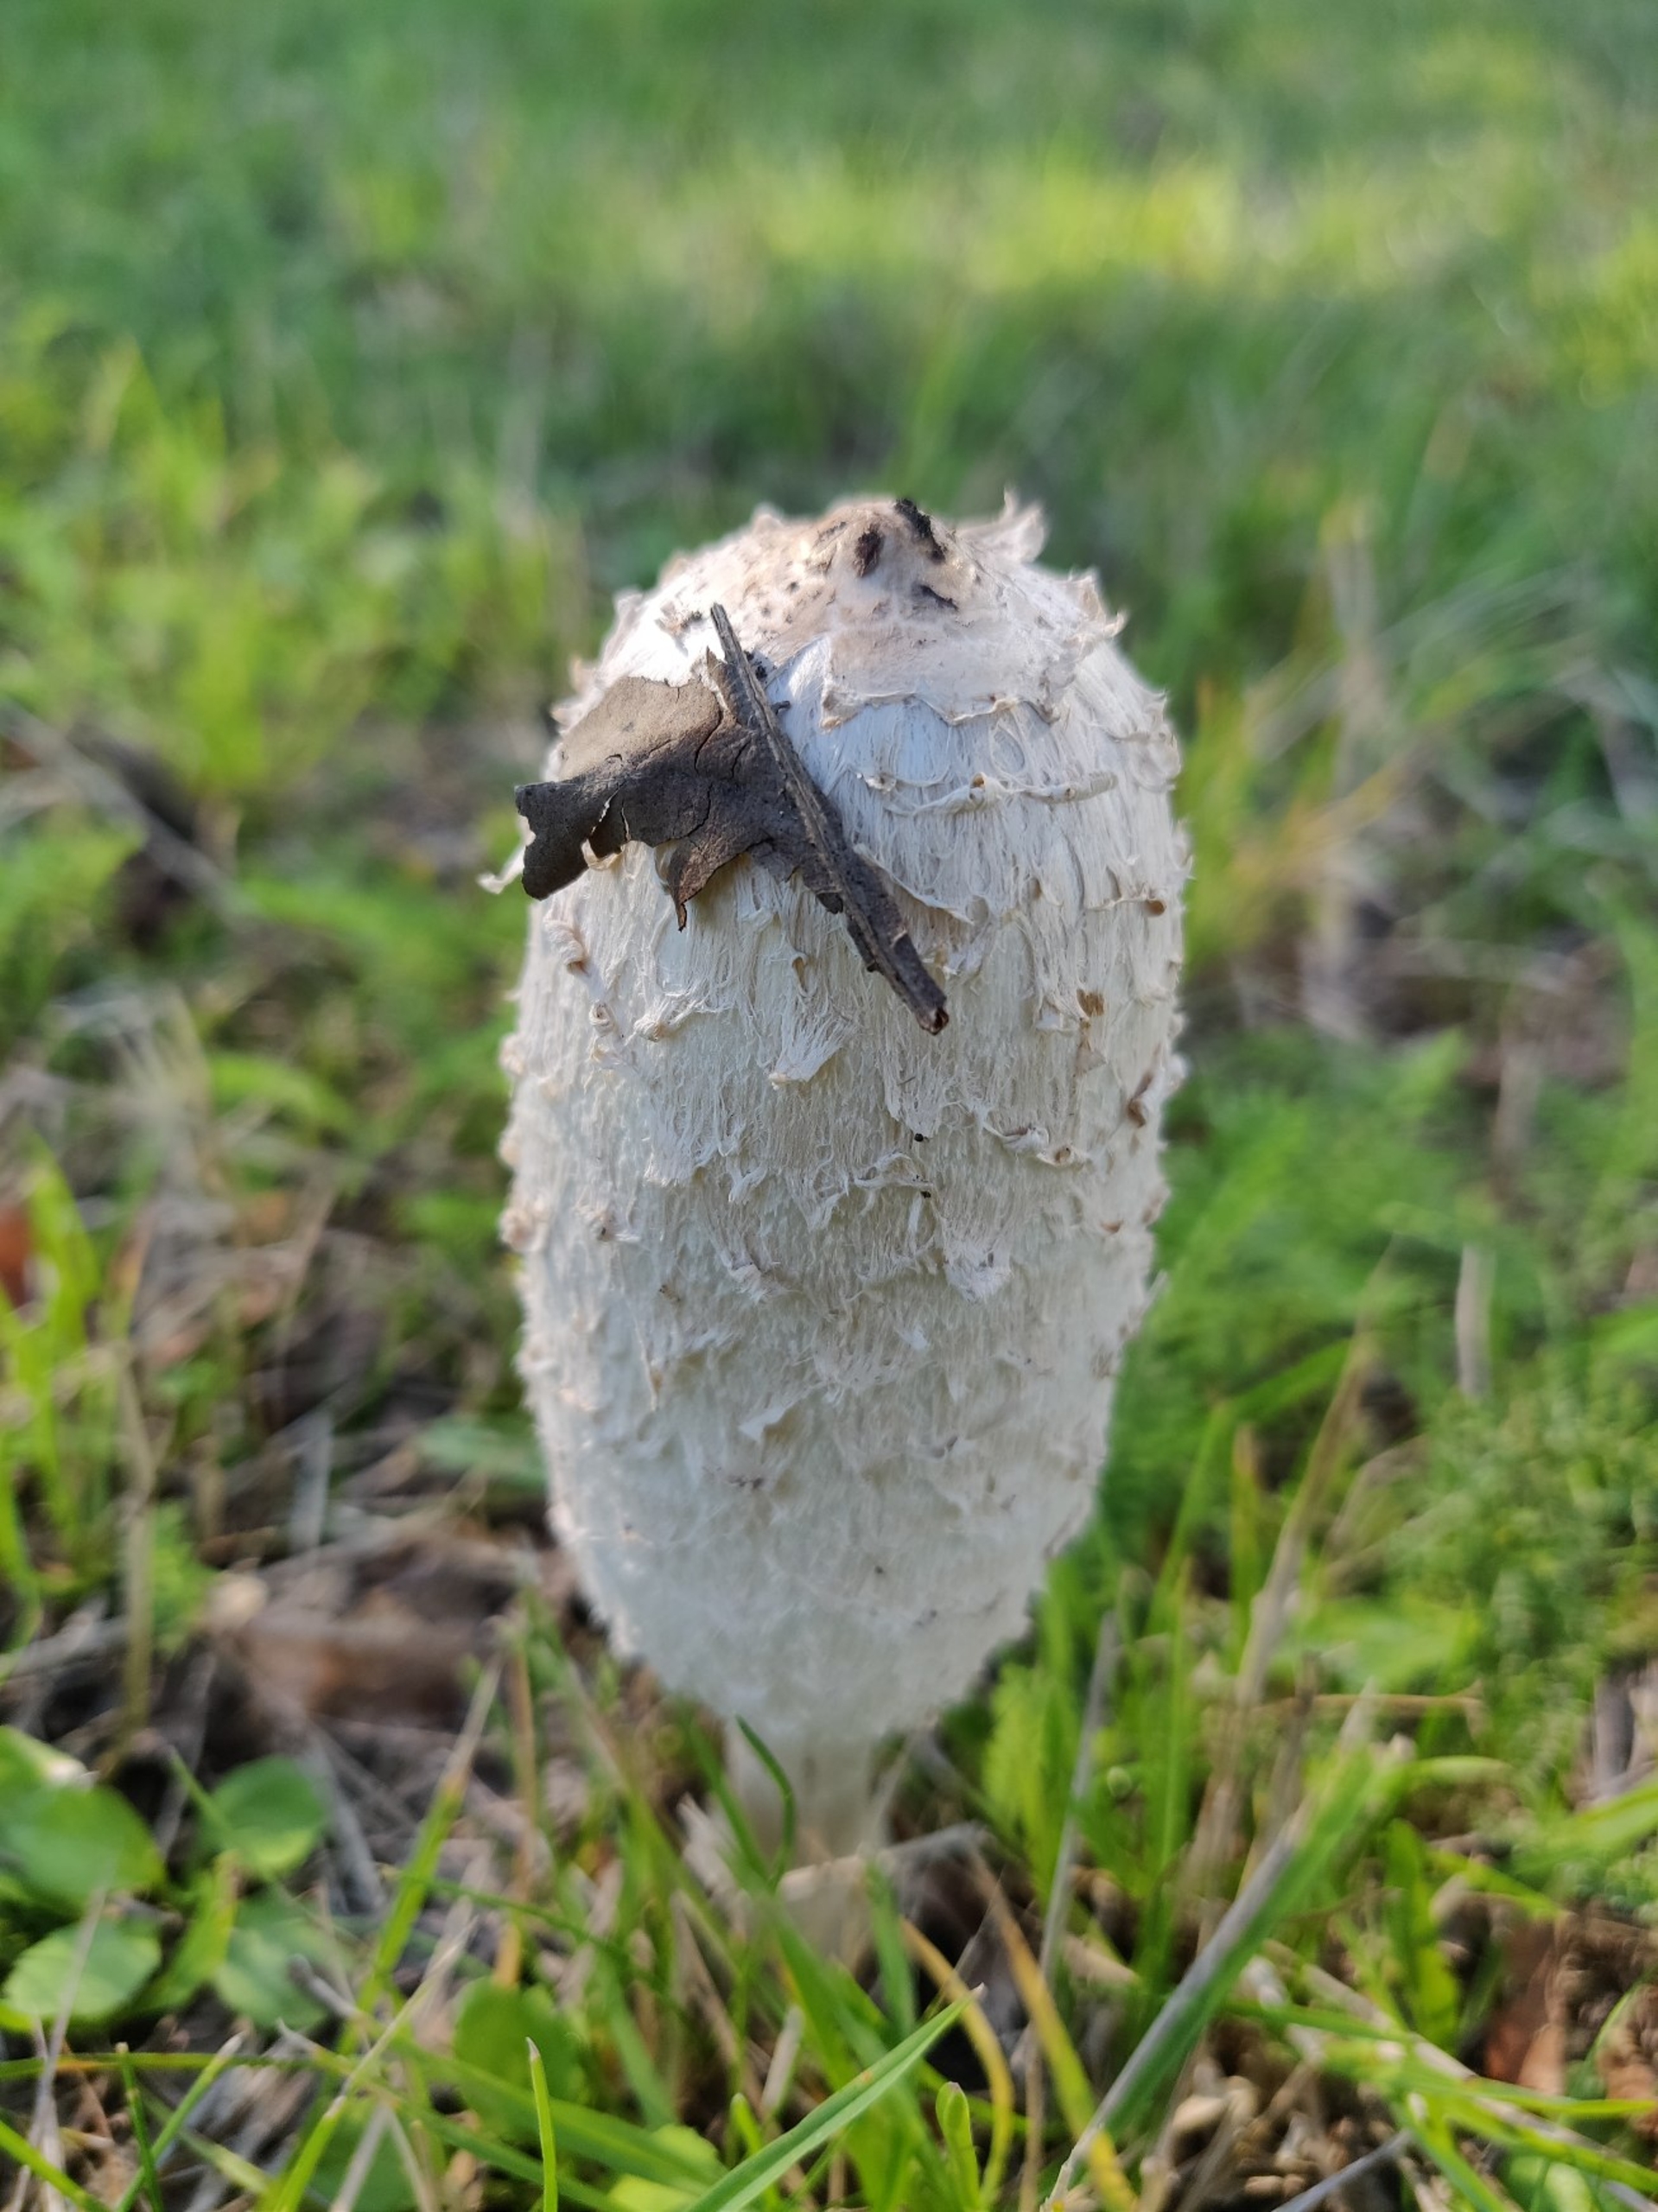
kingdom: Fungi
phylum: Basidiomycota
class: Agaricomycetes
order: Agaricales
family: Agaricaceae
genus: Coprinus
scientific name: Coprinus comatus
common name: Stor parykhat
